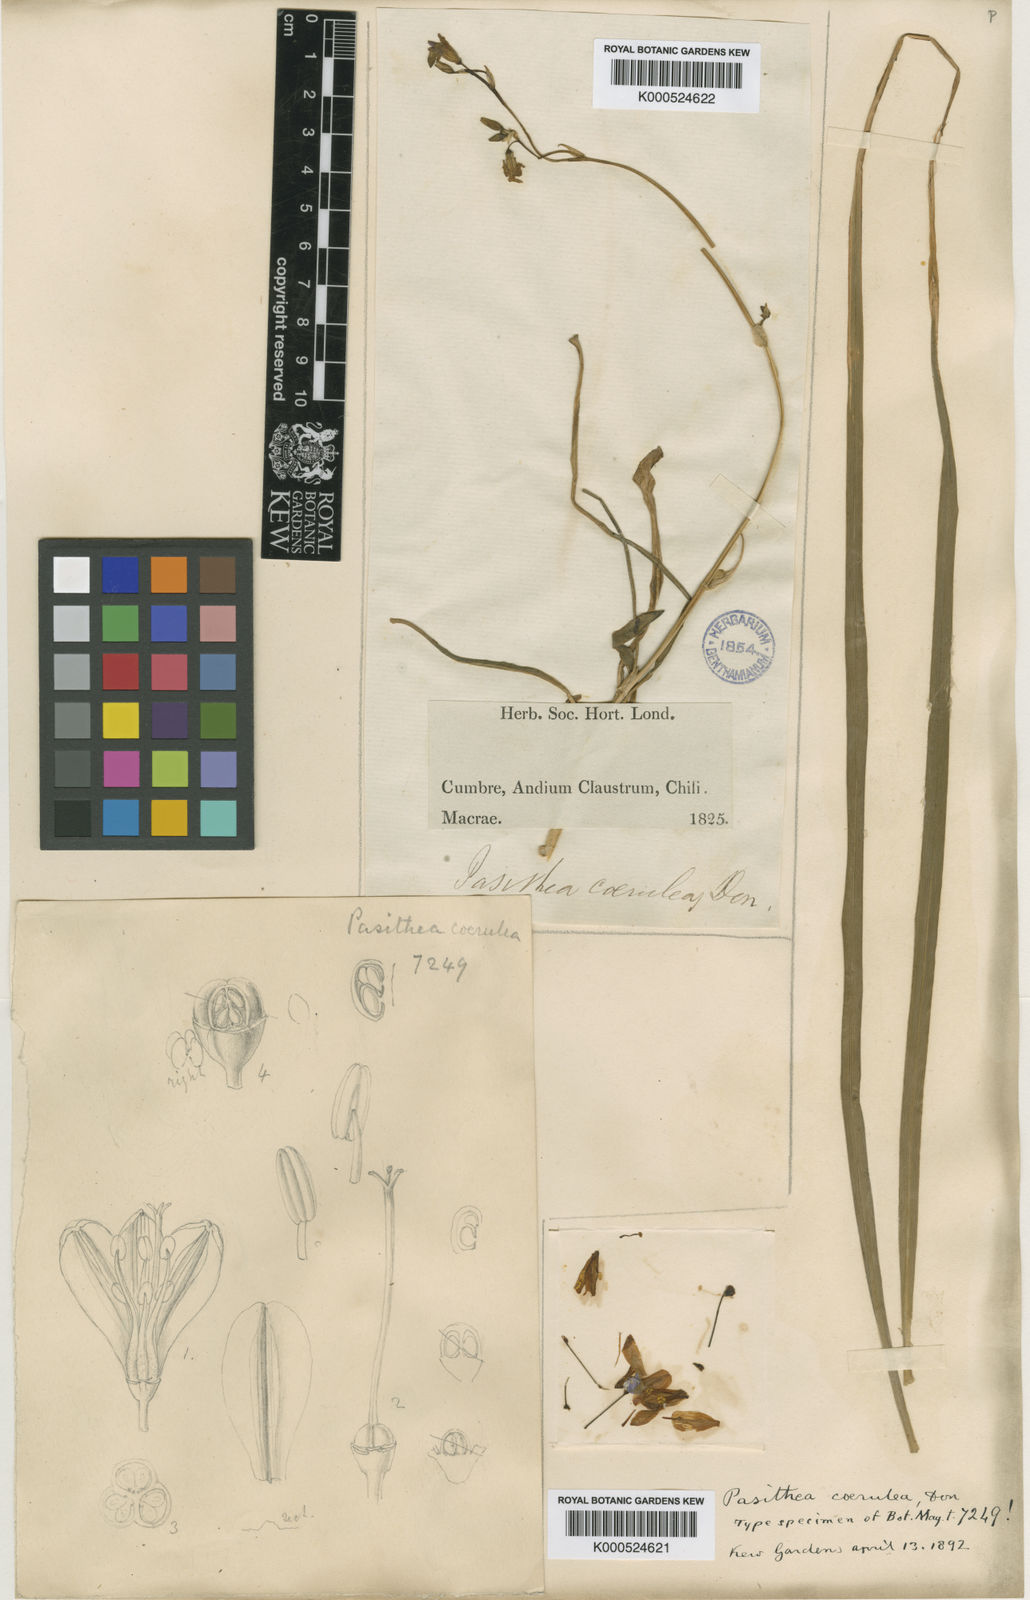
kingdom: Plantae
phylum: Tracheophyta
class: Liliopsida
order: Asparagales
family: Asphodelaceae
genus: Pasithea
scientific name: Pasithea
